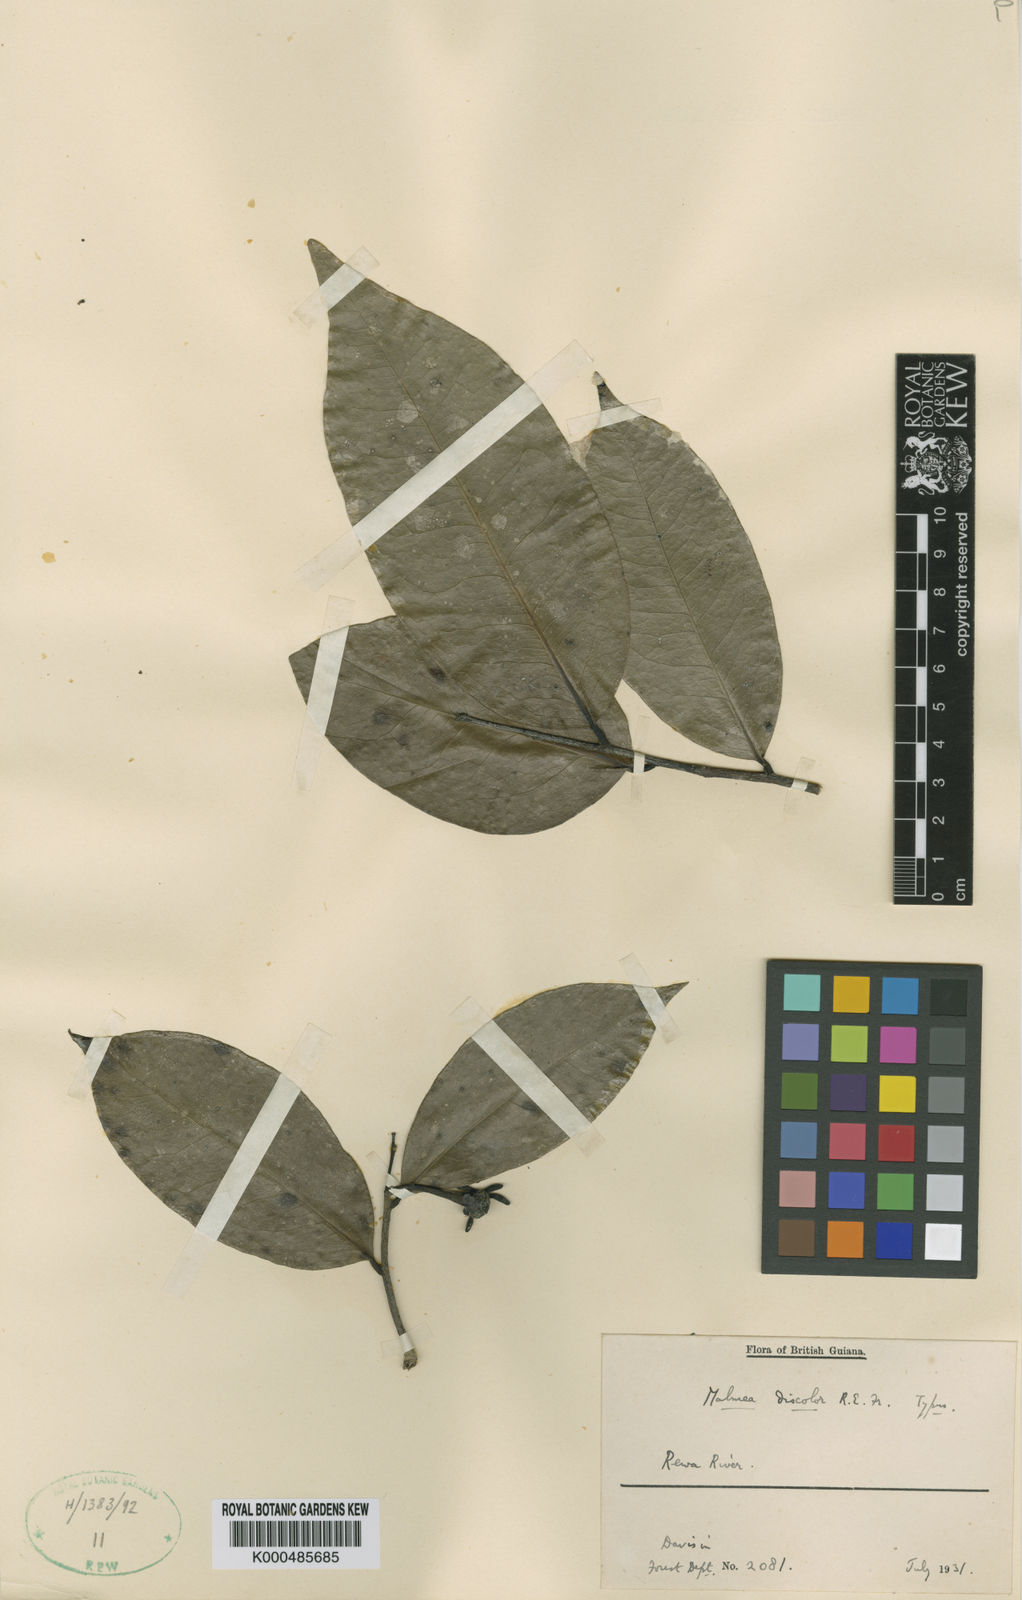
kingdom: Plantae
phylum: Tracheophyta
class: Magnoliopsida
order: Magnoliales
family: Annonaceae
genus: Mosannona
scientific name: Mosannona discolor
